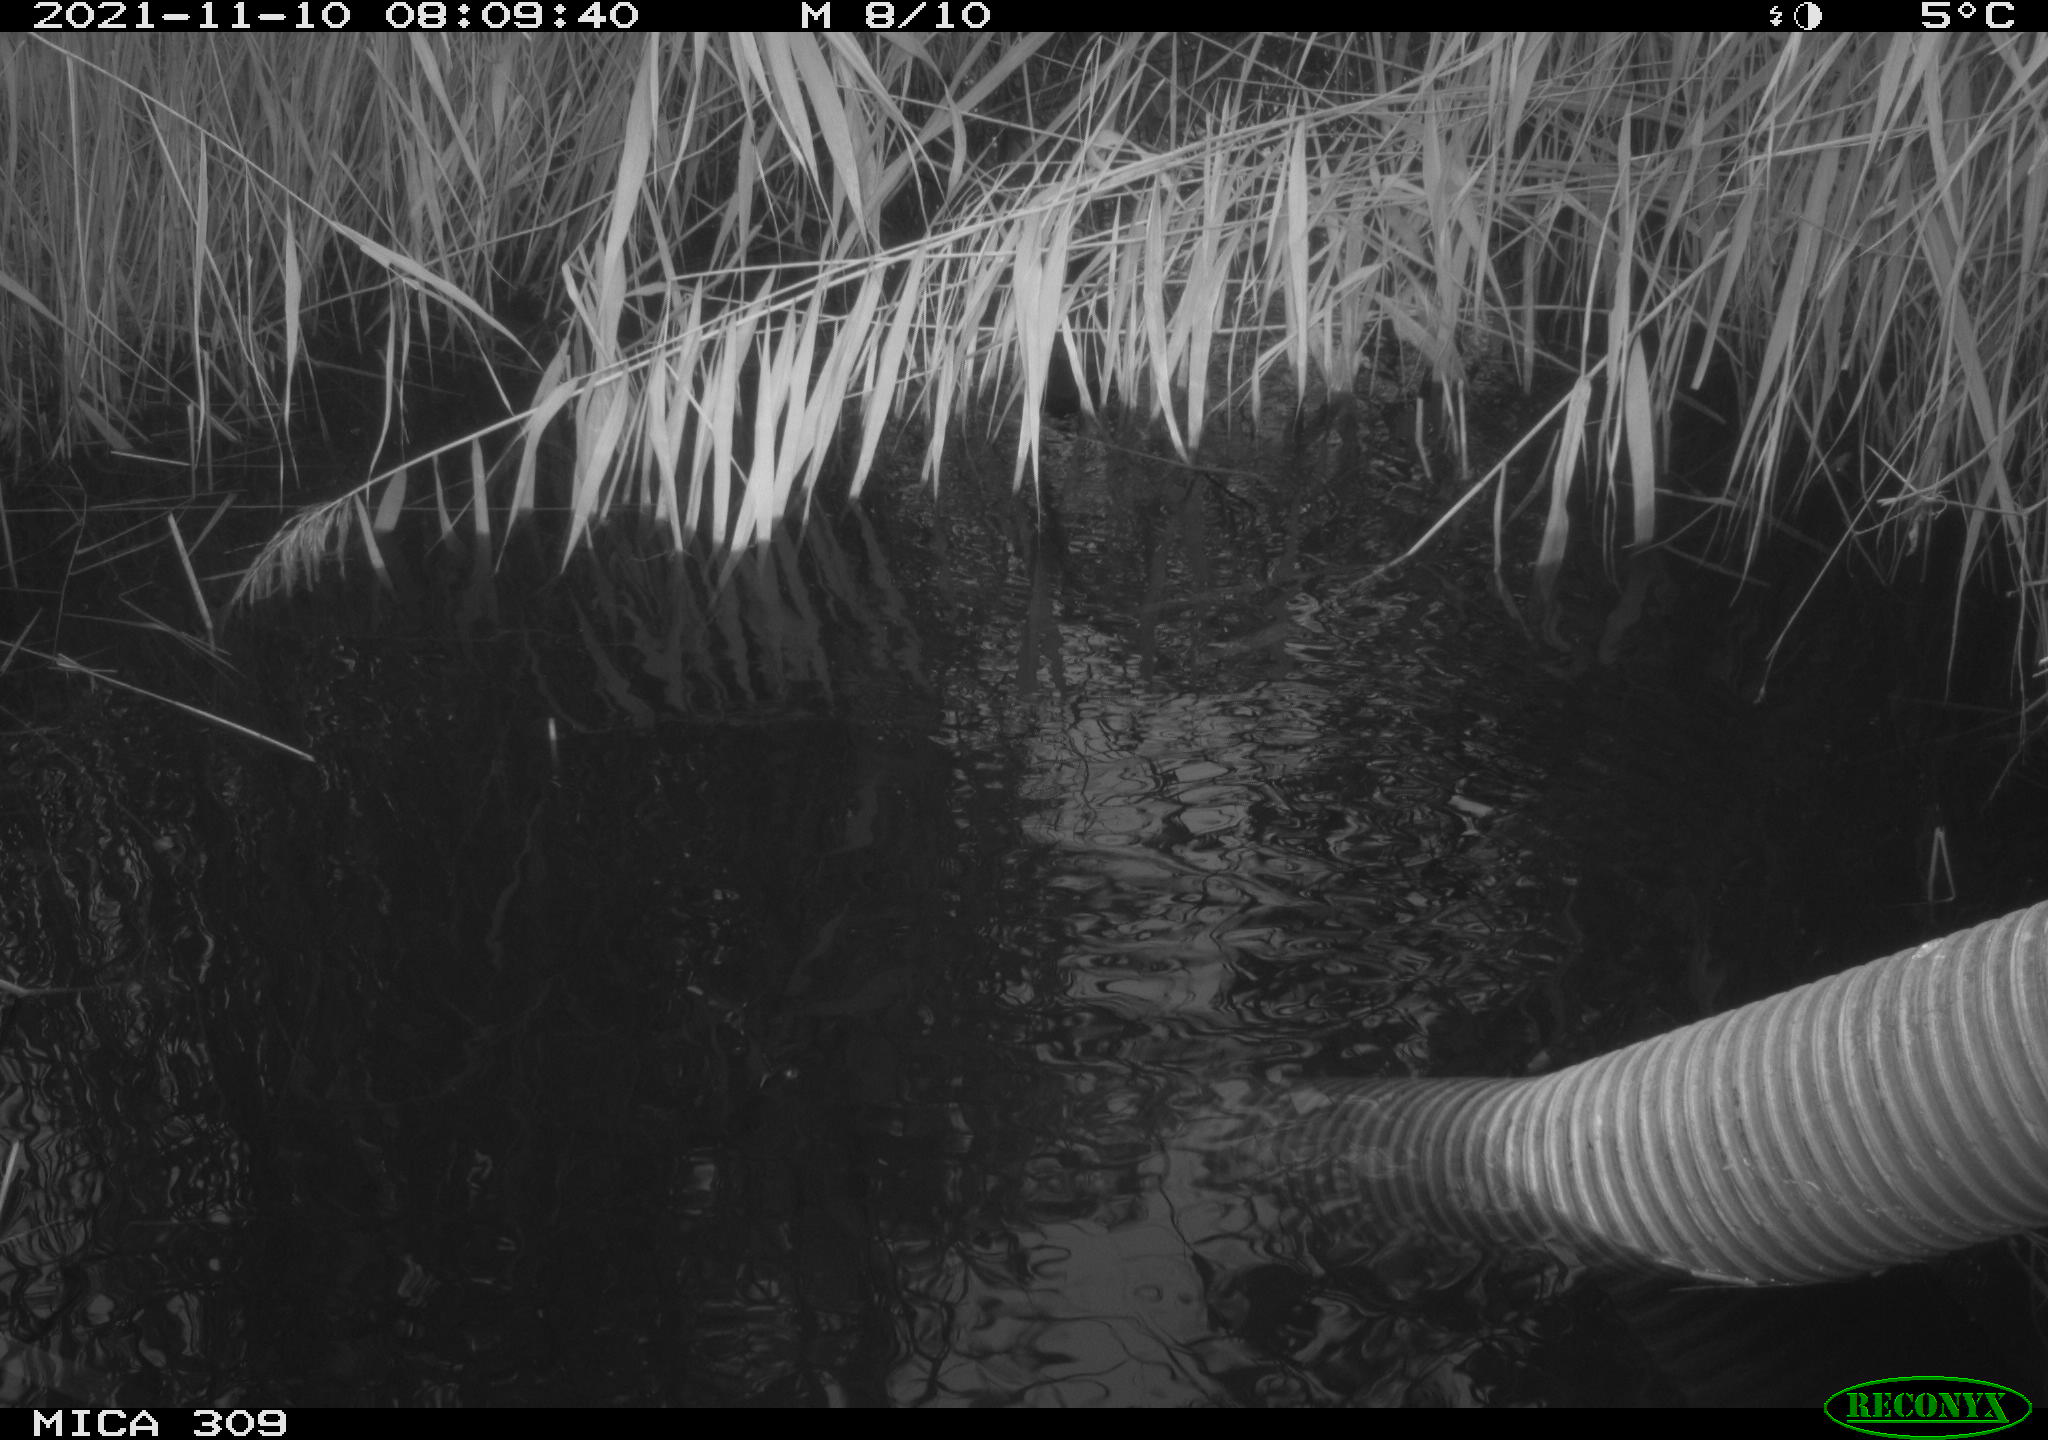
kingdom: Animalia
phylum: Chordata
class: Aves
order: Gruiformes
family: Rallidae
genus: Gallinula
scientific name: Gallinula chloropus
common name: Common moorhen
